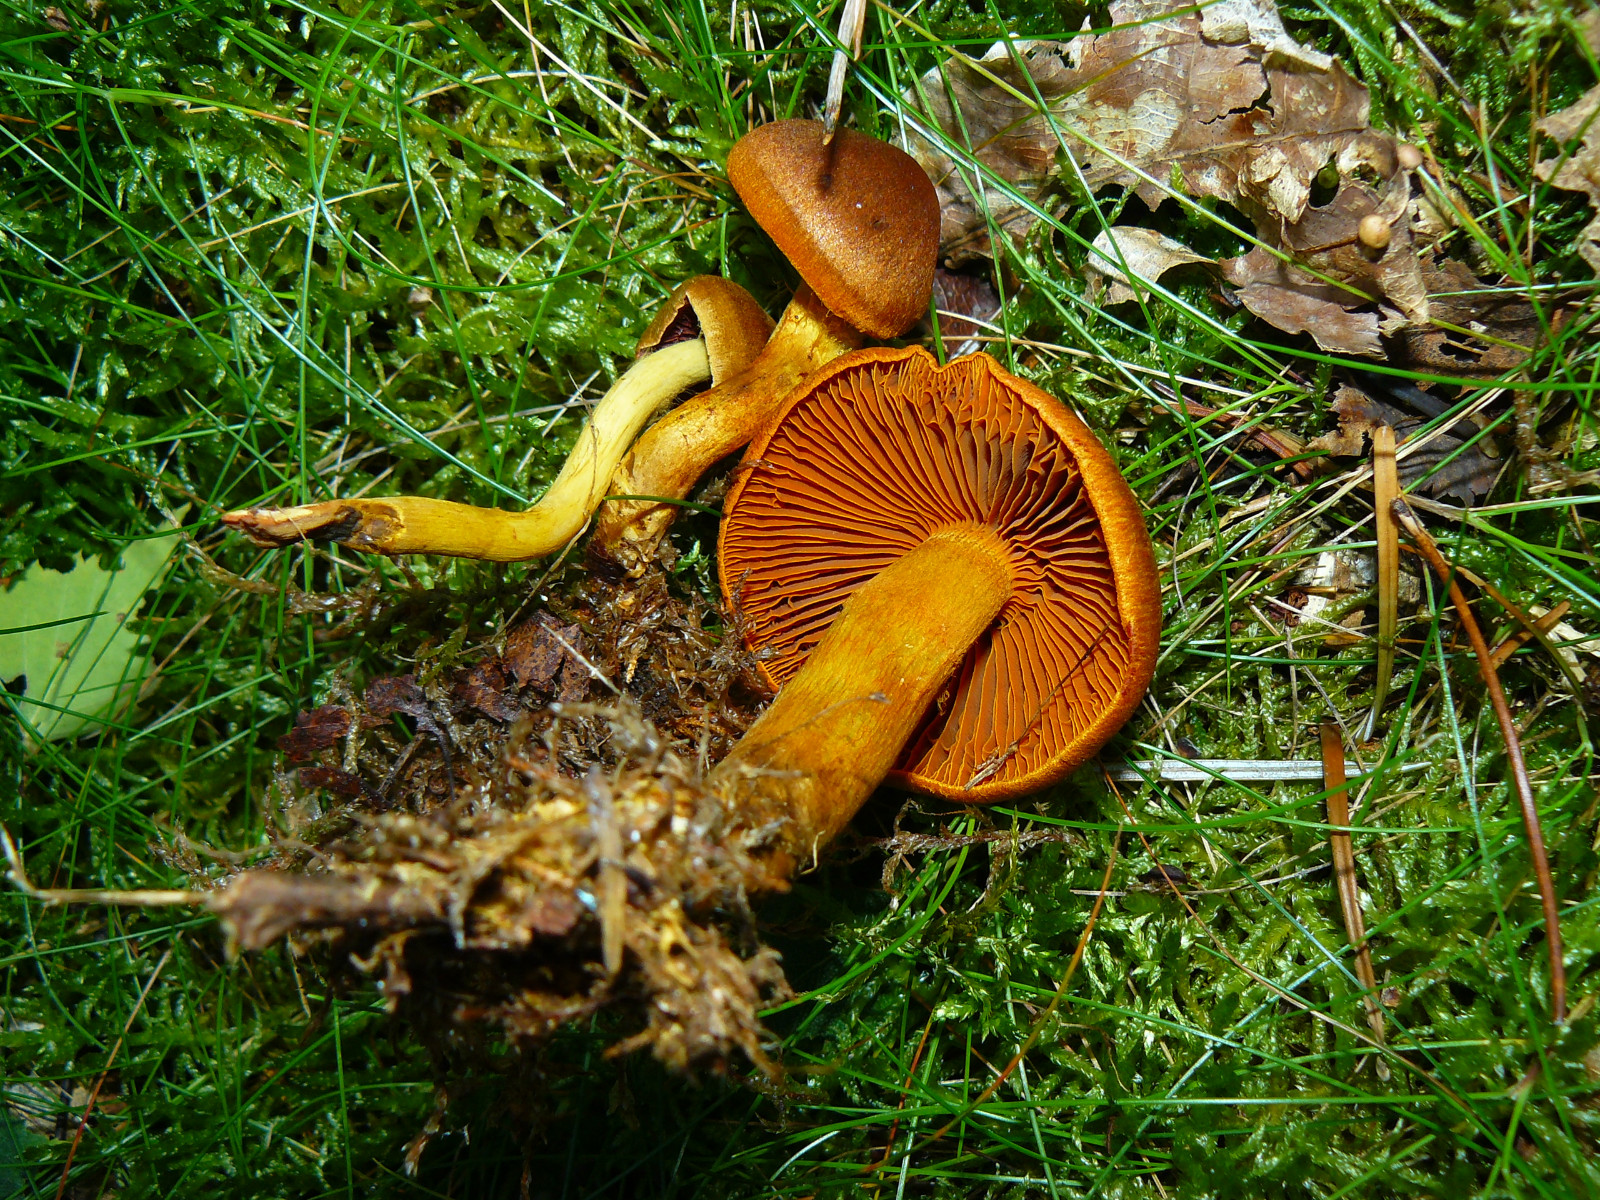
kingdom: Fungi
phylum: Basidiomycota
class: Agaricomycetes
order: Agaricales
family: Cortinariaceae
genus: Cortinarius
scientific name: Cortinarius
